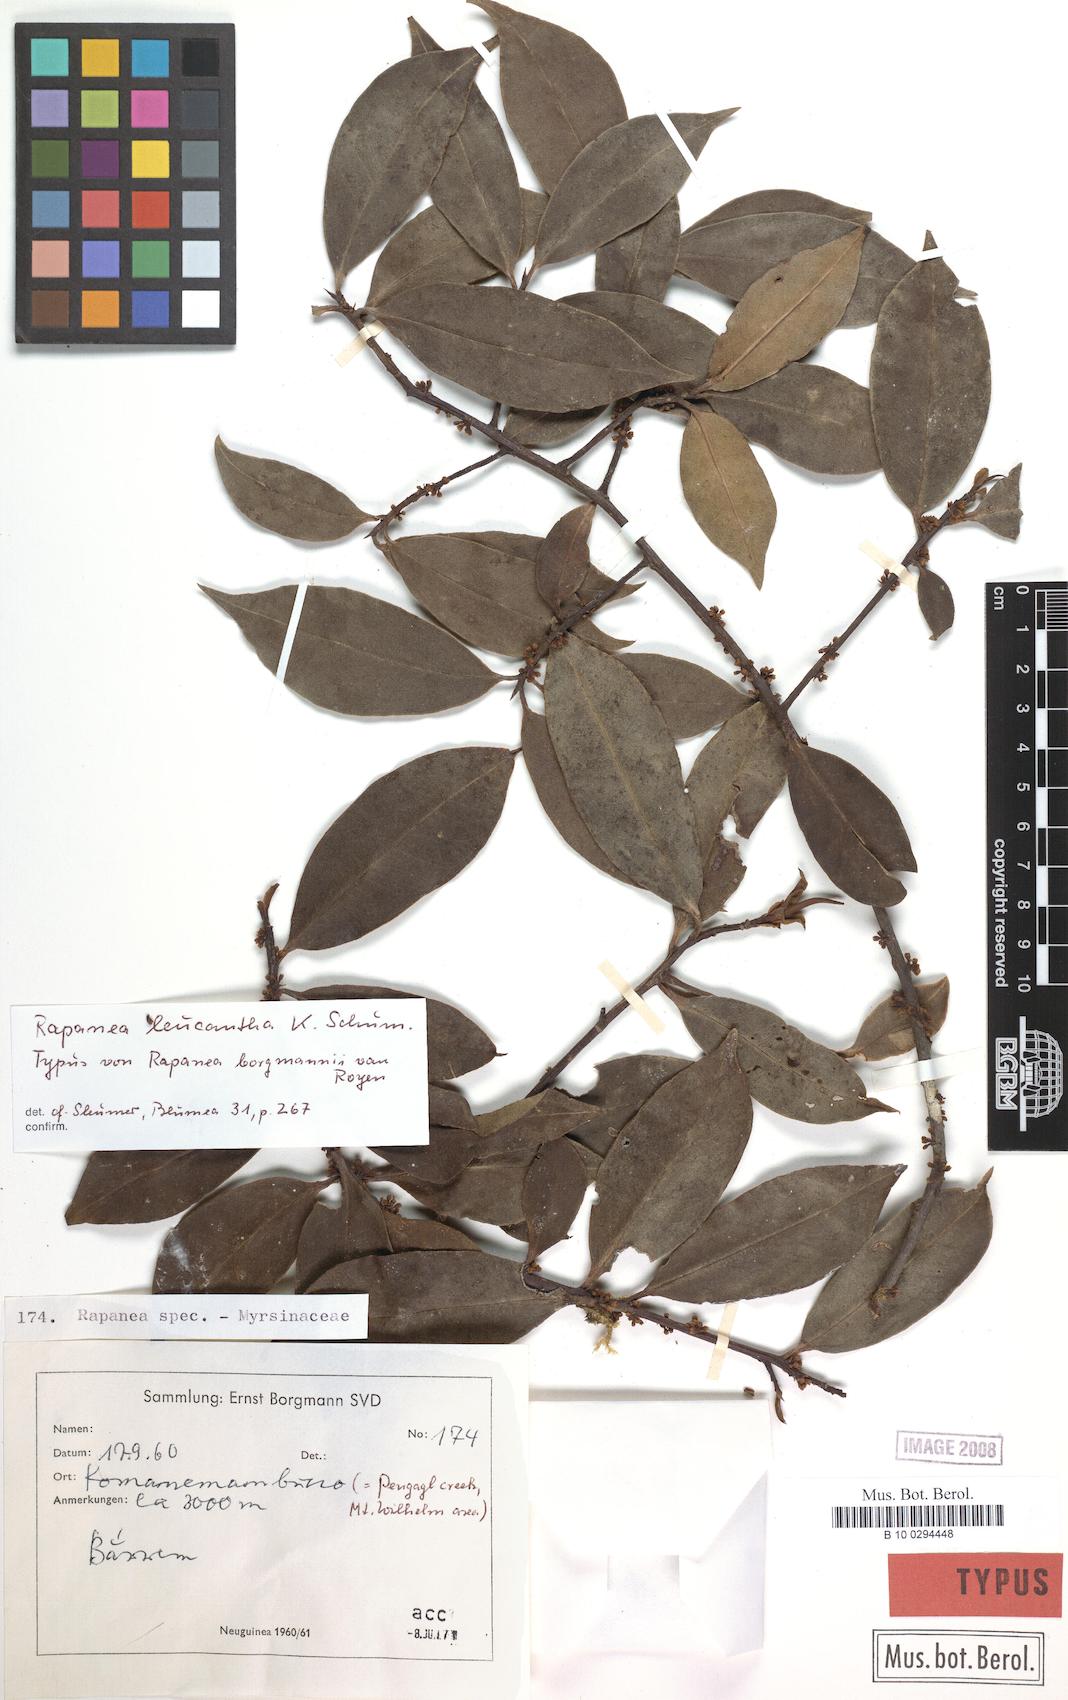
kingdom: Plantae
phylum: Tracheophyta
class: Magnoliopsida
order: Ericales
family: Primulaceae
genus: Myrsine
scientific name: Myrsine leucantha
